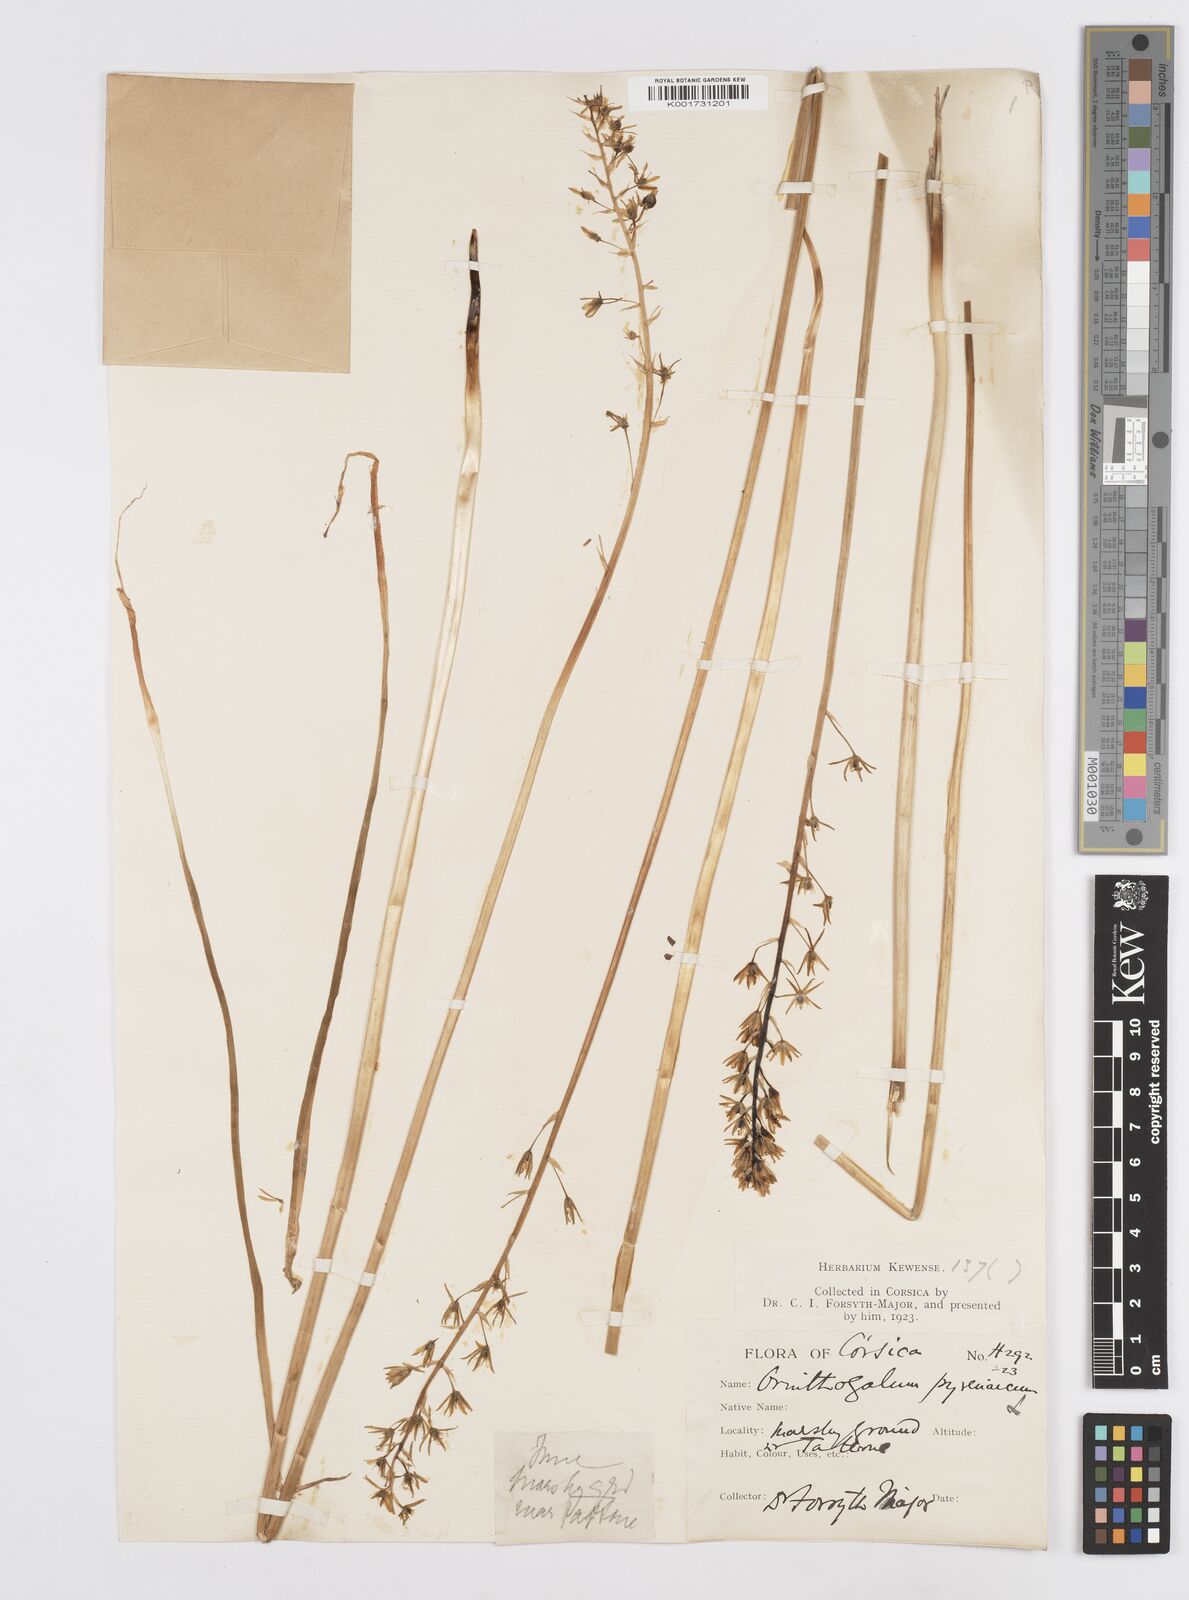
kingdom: Plantae
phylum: Tracheophyta
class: Liliopsida
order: Asparagales
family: Asparagaceae
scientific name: Asparagaceae
